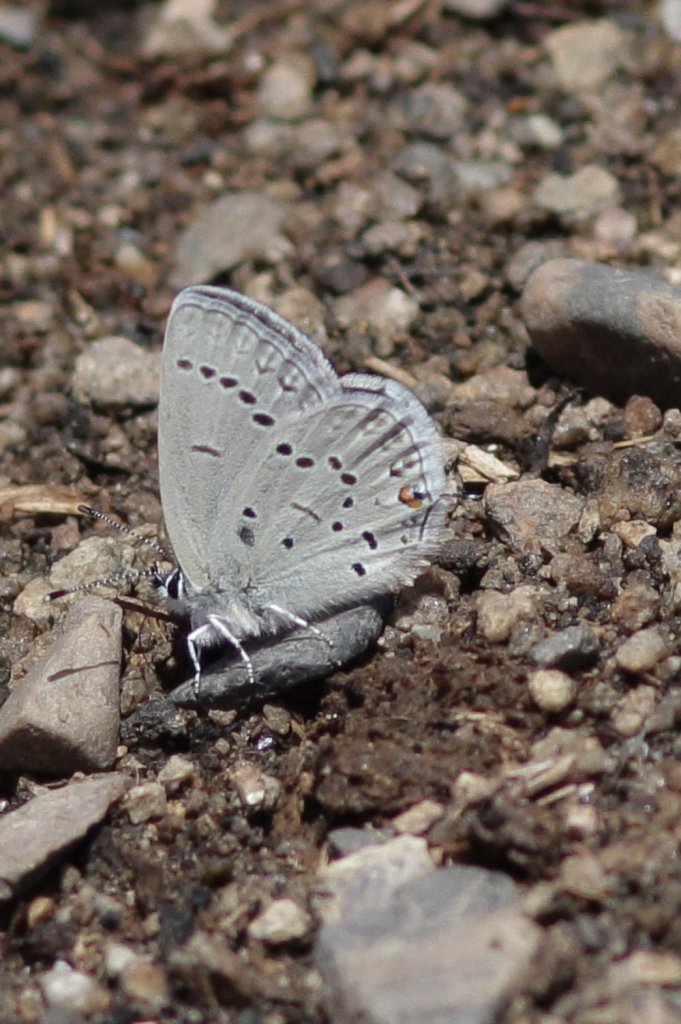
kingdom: Animalia
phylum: Arthropoda
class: Insecta
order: Lepidoptera
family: Lycaenidae
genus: Elkalyce
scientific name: Elkalyce amyntula
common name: Western Tailed-Blue
